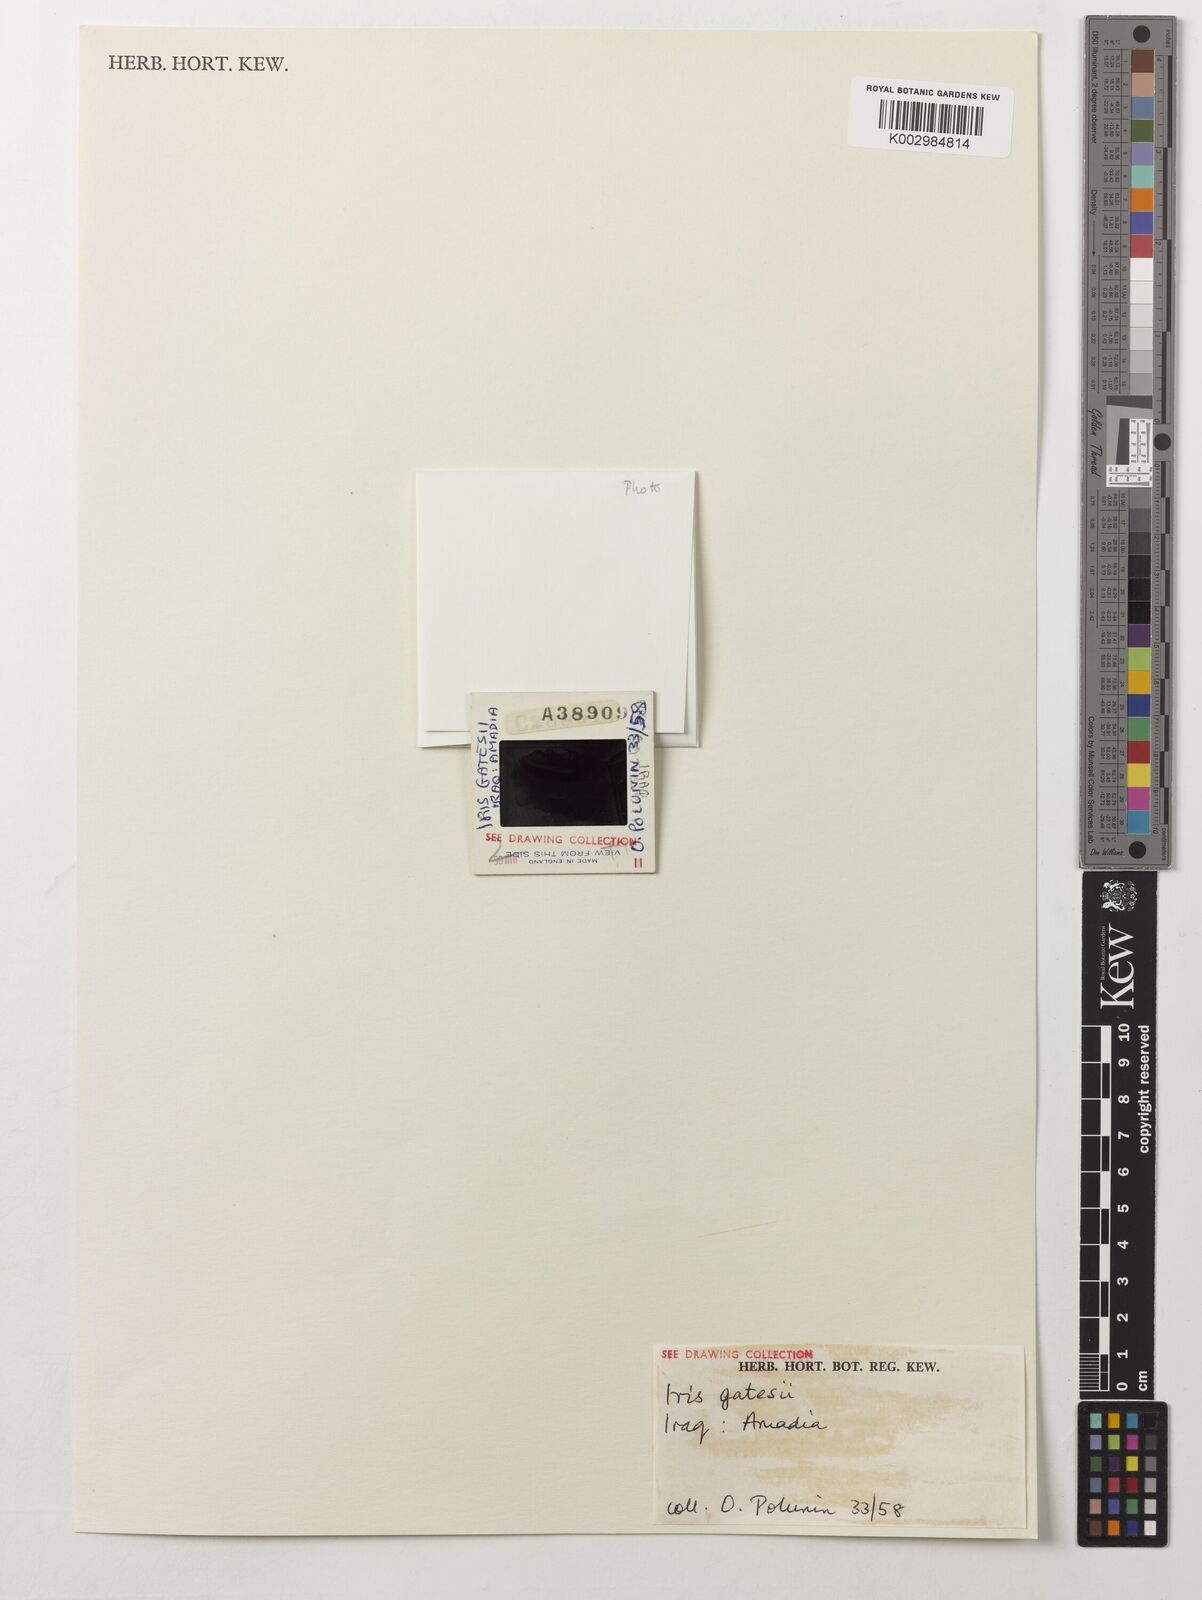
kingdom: Plantae
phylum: Tracheophyta
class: Liliopsida
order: Asparagales
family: Iridaceae
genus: Iris
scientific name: Iris gatesii
